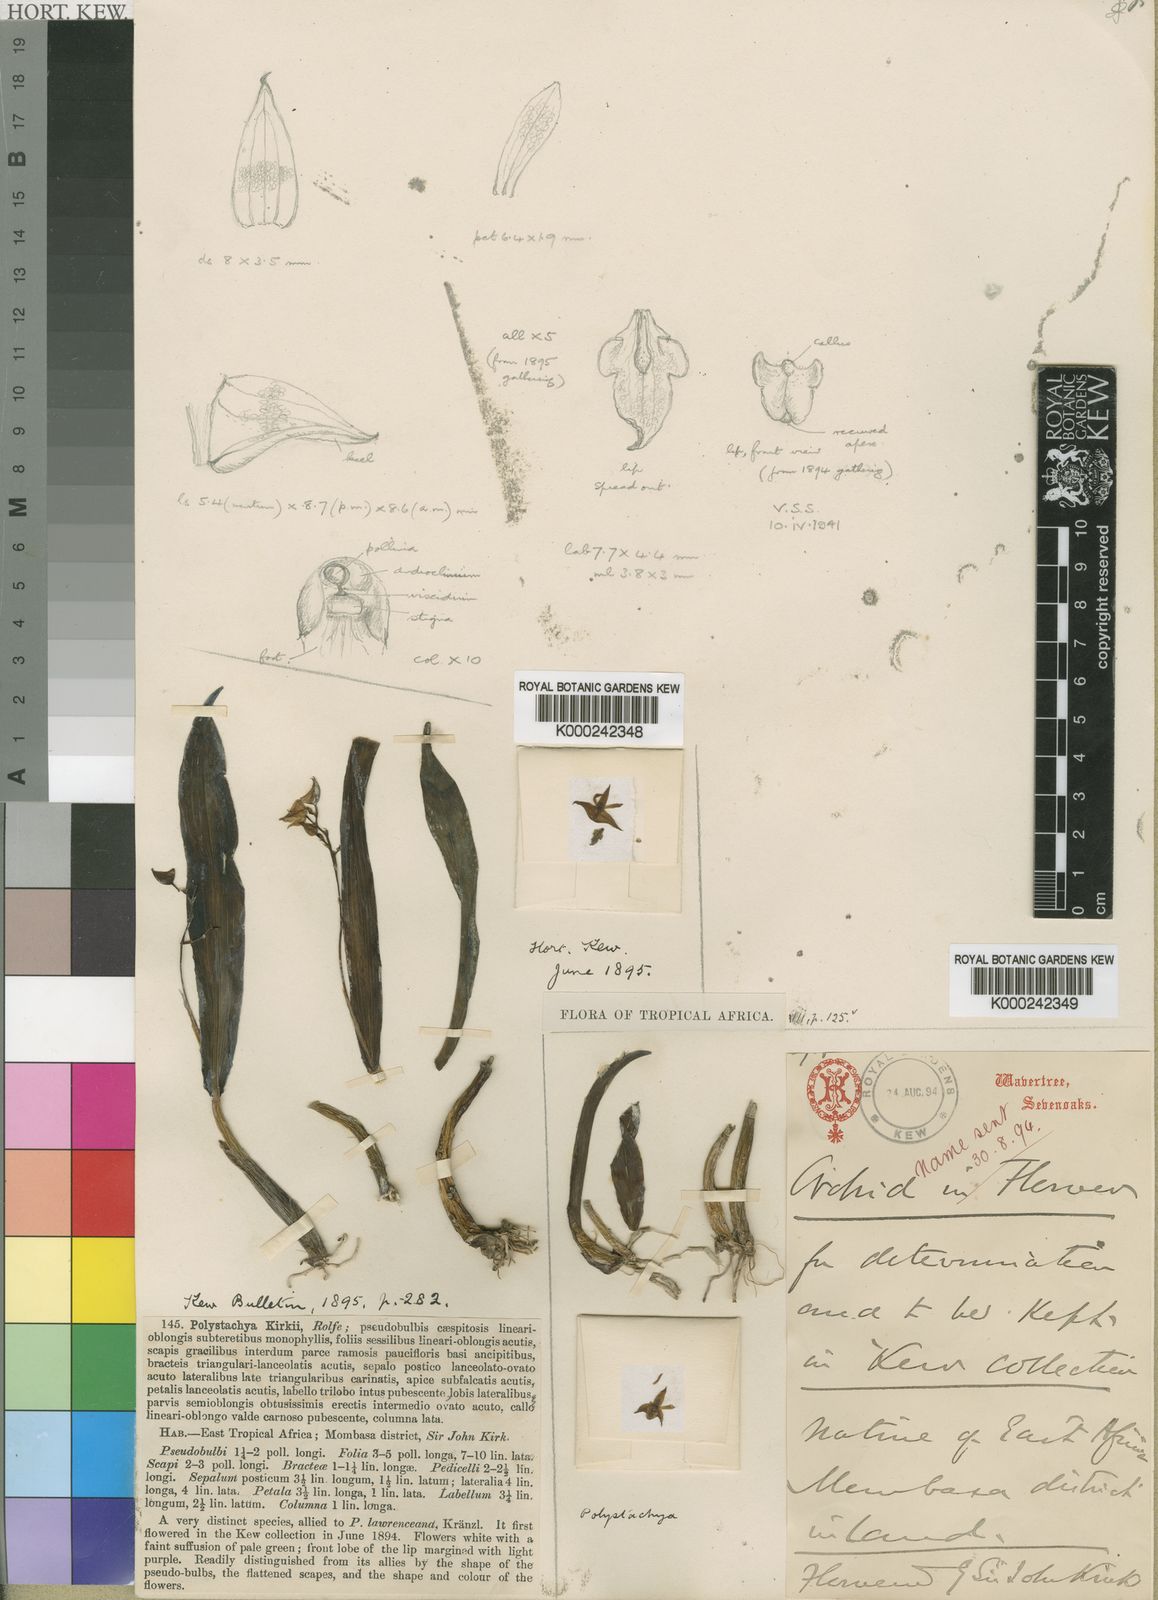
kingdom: Plantae
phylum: Tracheophyta
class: Liliopsida
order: Asparagales
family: Orchidaceae
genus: Polystachya
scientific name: Polystachya cultriformis
